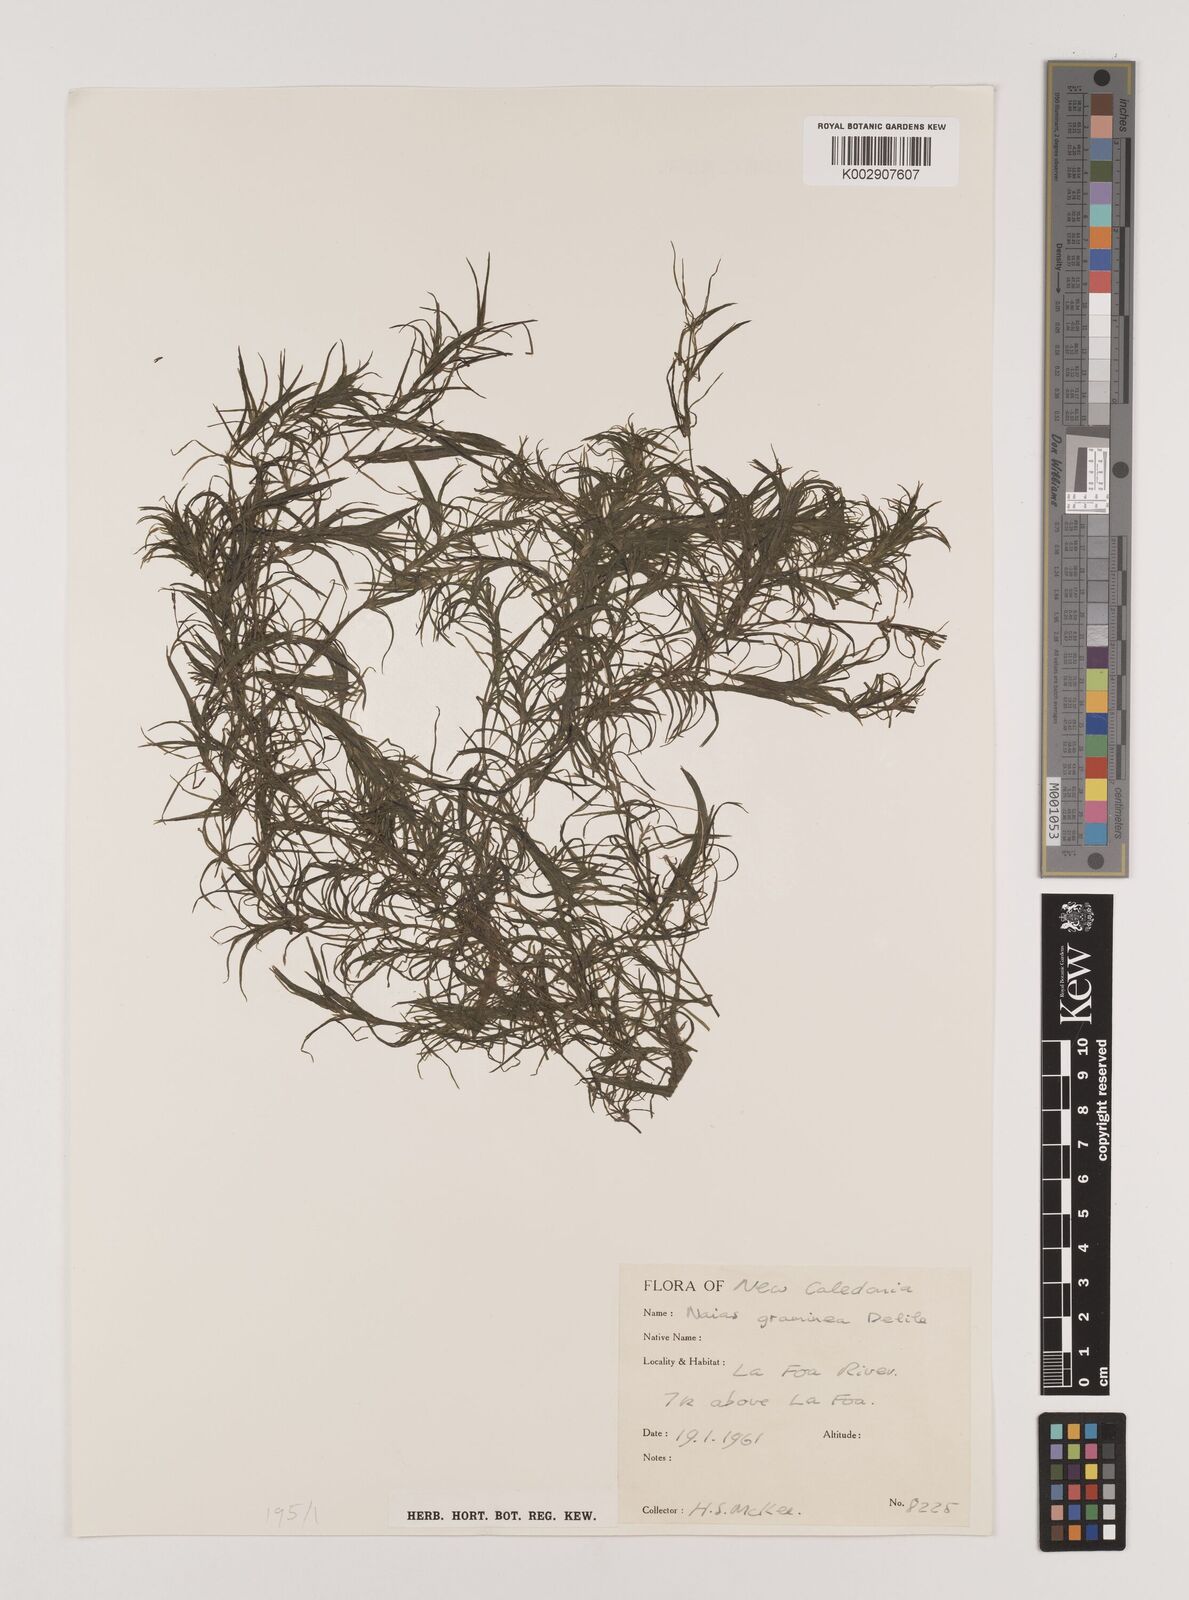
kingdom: Plantae
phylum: Tracheophyta
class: Liliopsida
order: Alismatales
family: Hydrocharitaceae
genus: Najas
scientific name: Najas graminea
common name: Ricefield waternymph
